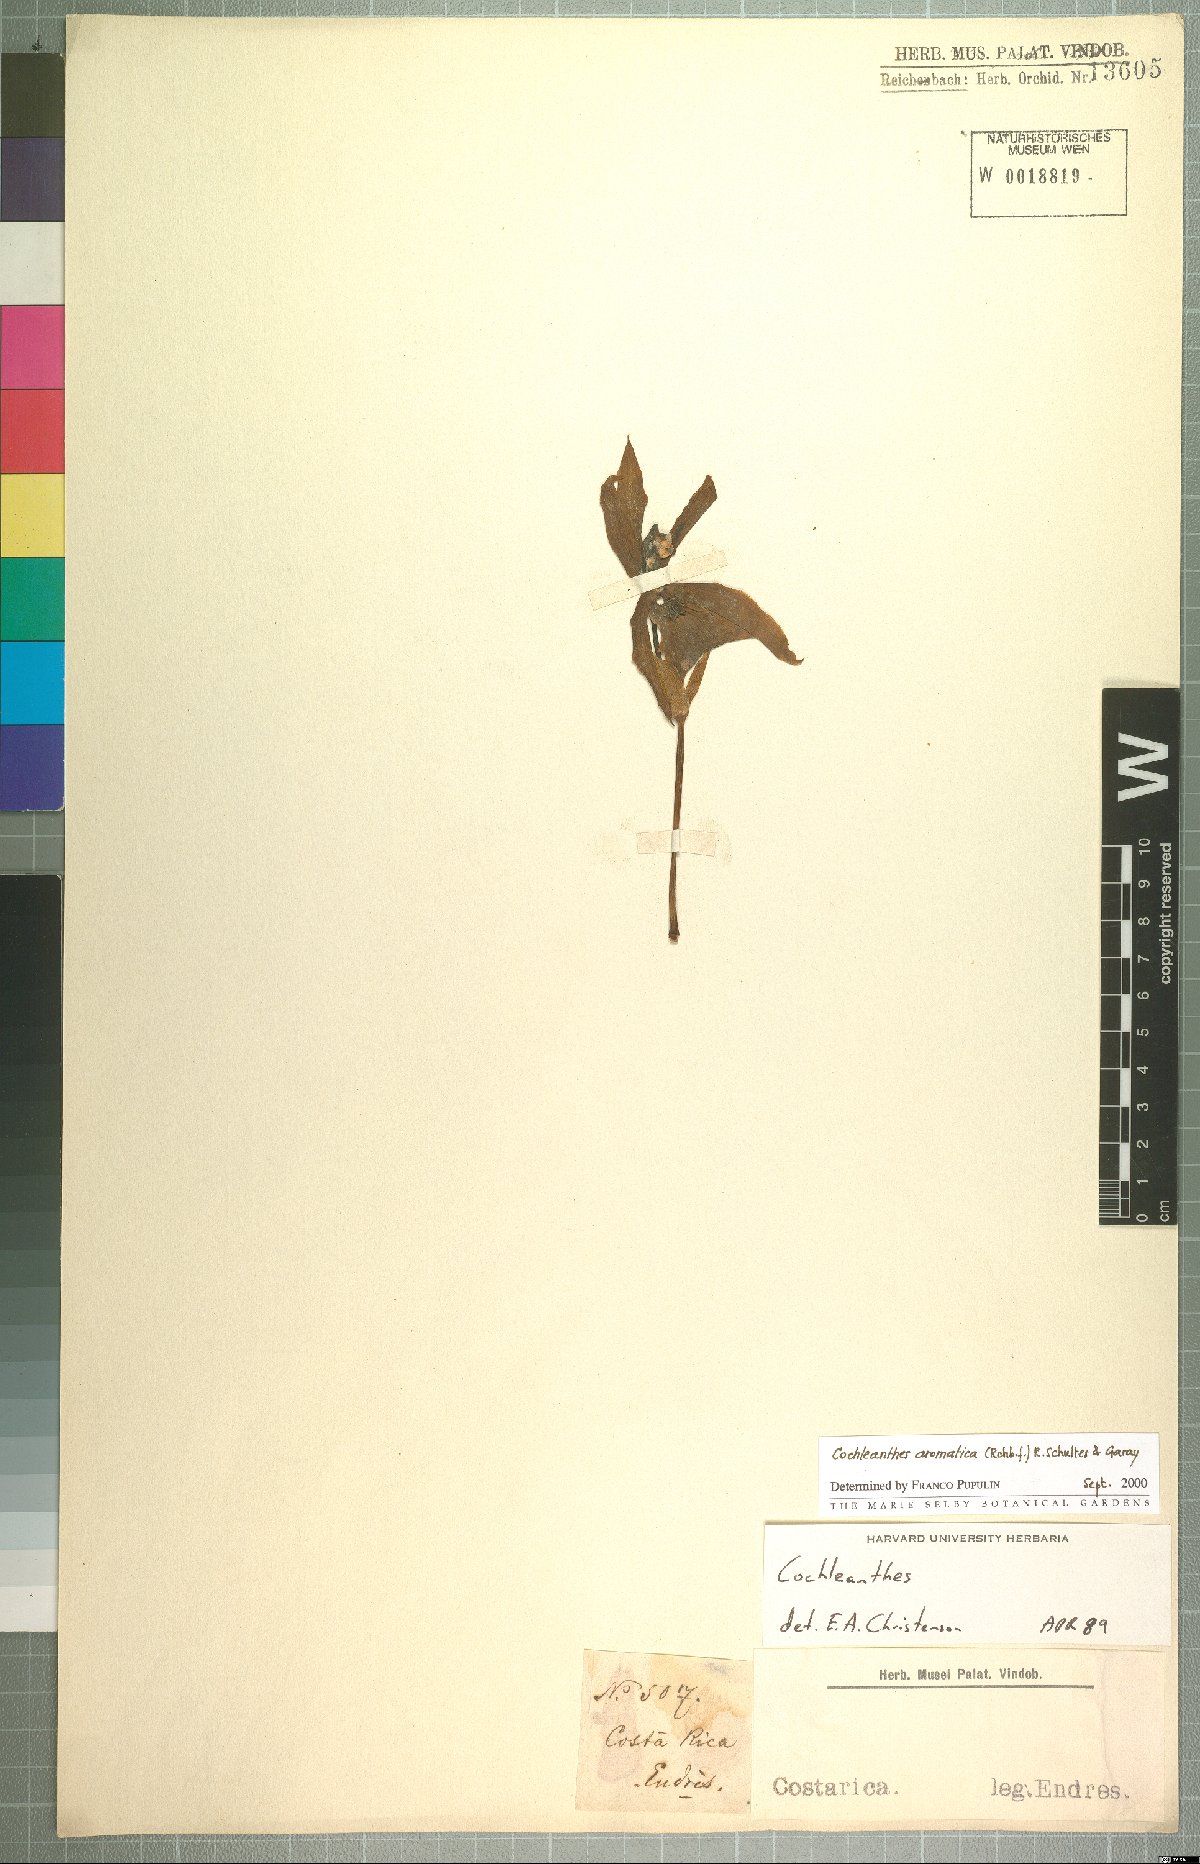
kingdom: Plantae
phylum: Tracheophyta
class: Liliopsida
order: Asparagales
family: Orchidaceae
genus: Cochleanthes
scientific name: Cochleanthes aromatica
